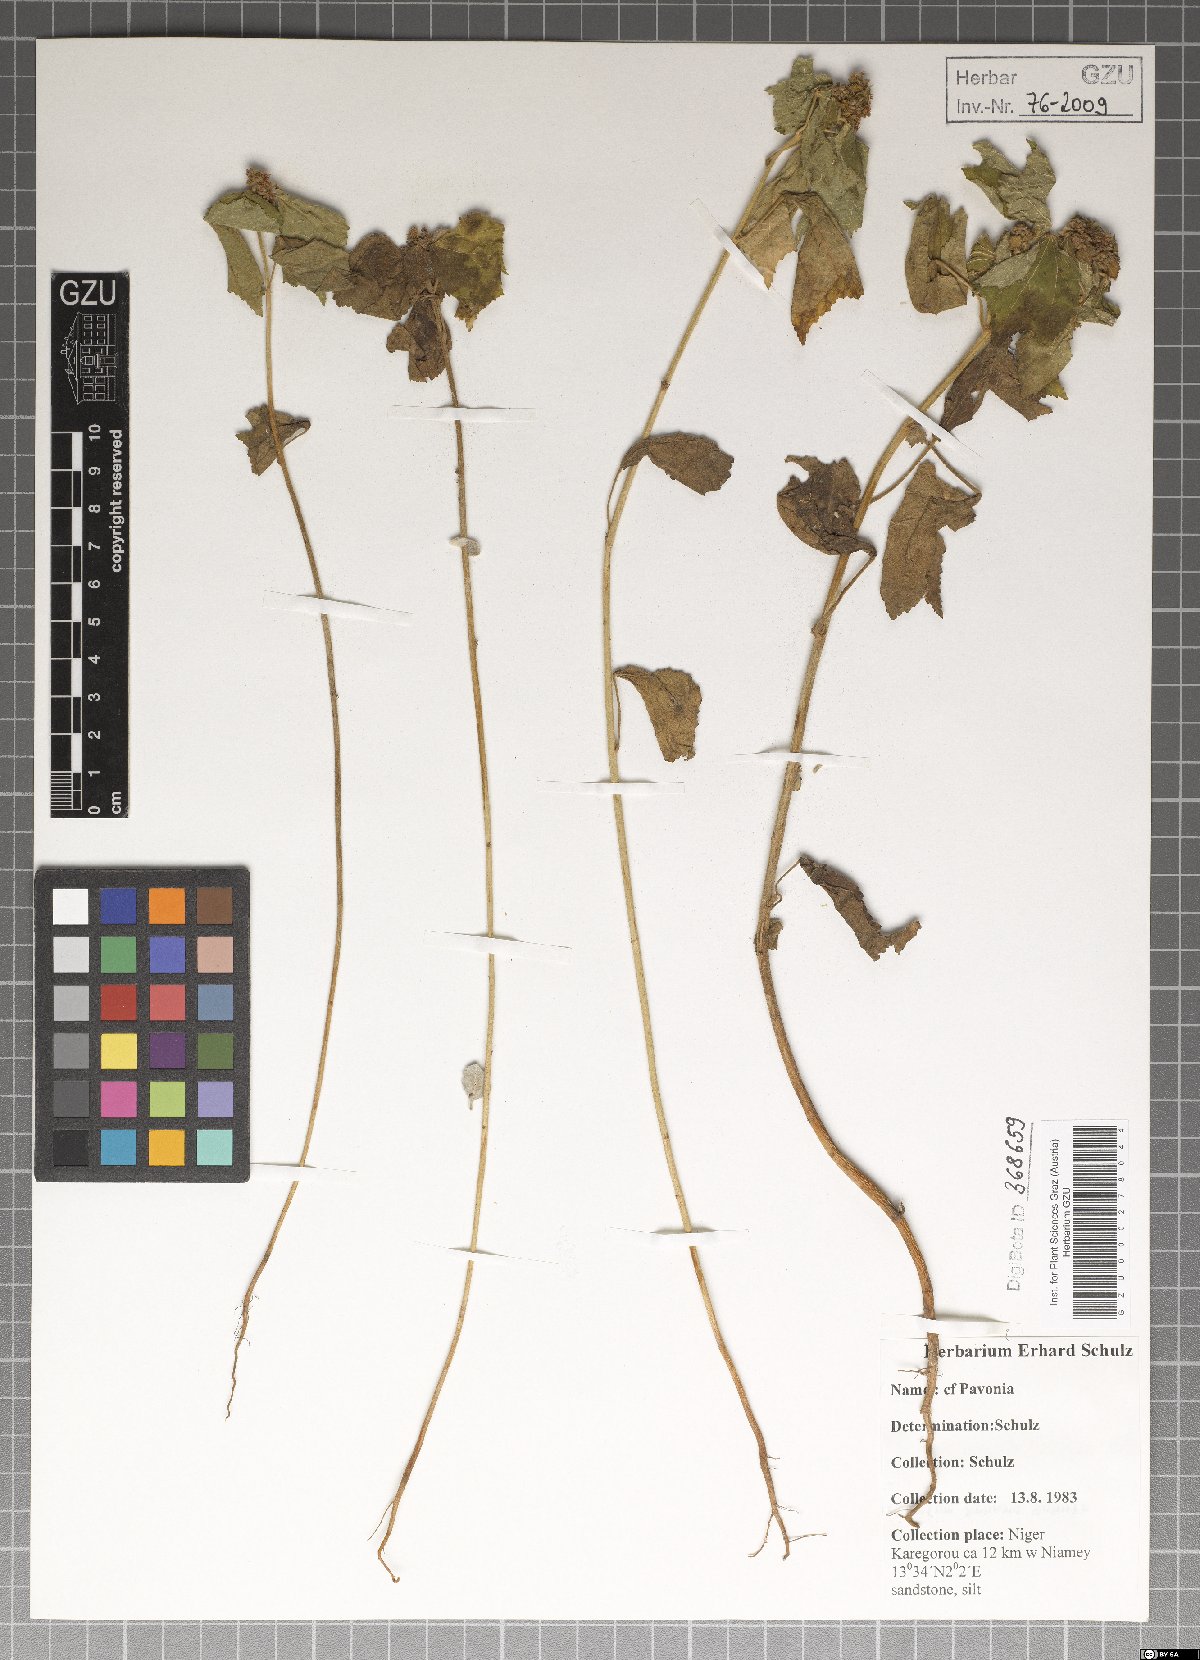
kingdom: Plantae
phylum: Tracheophyta
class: Magnoliopsida
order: Malvales
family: Malvaceae
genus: Pavonia
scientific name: Pavonia
